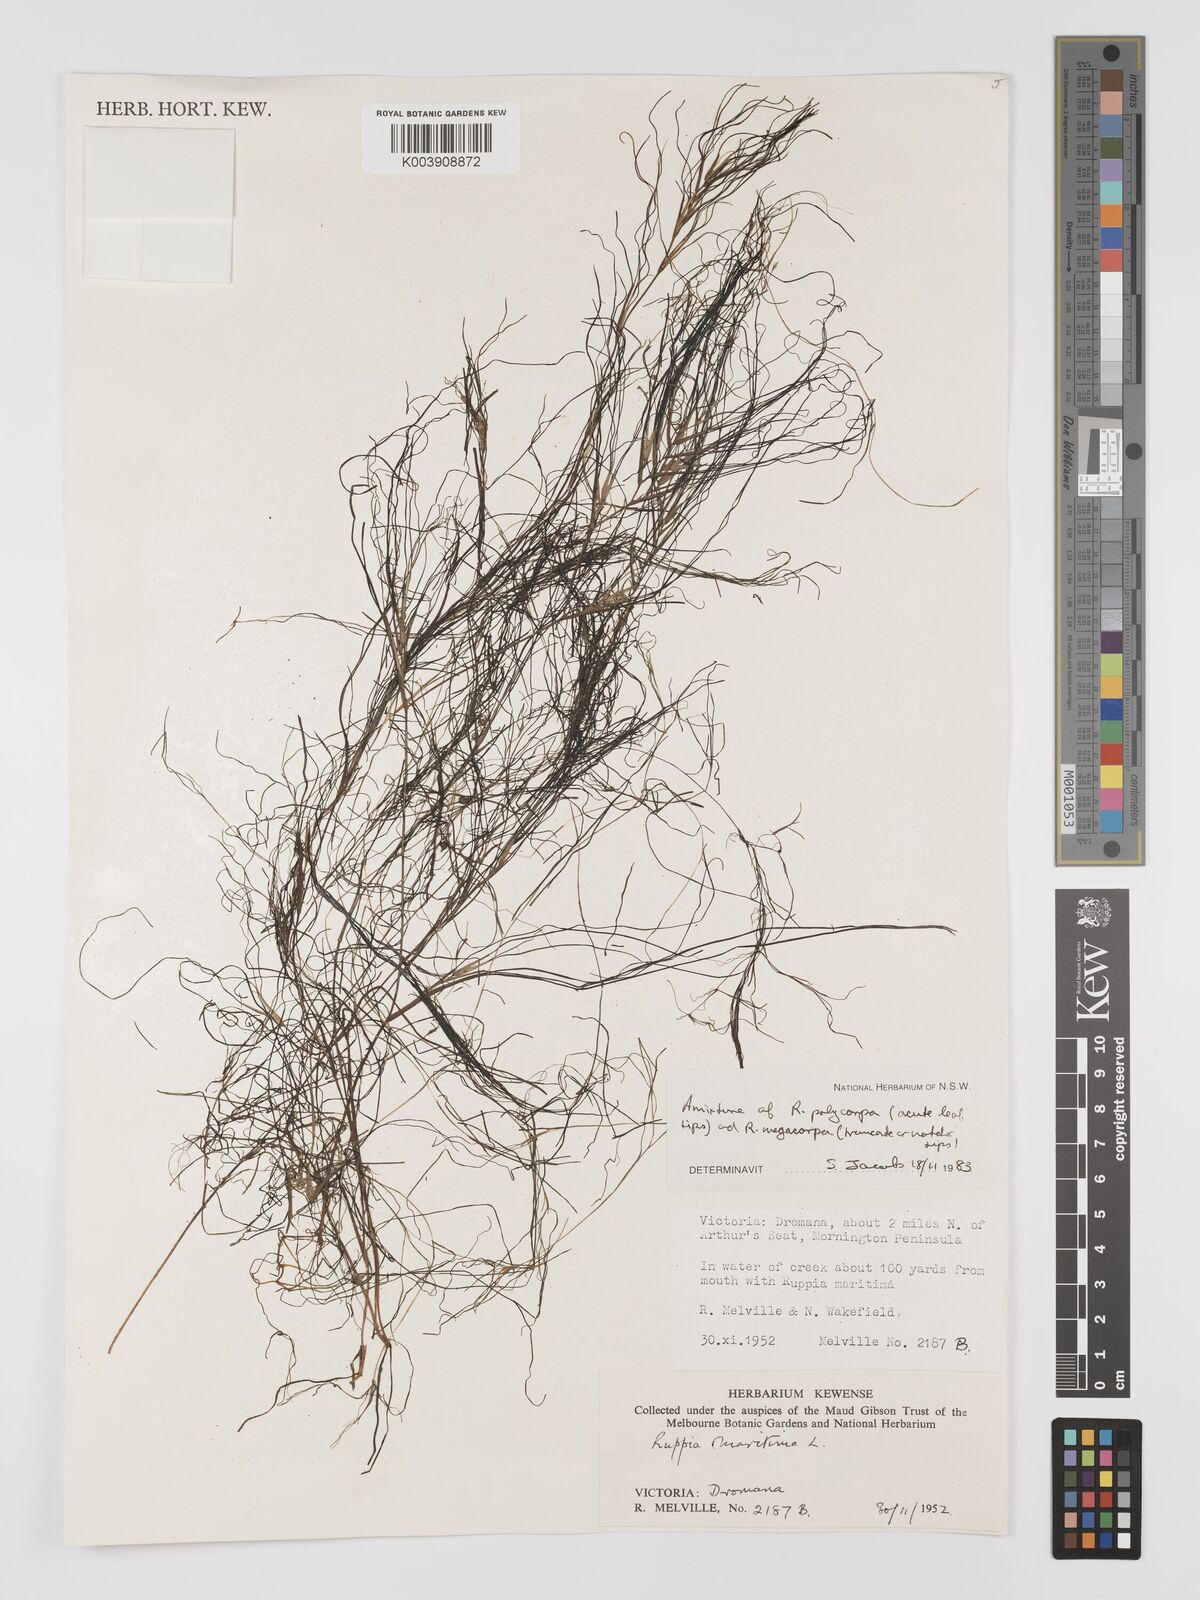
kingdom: Plantae
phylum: Tracheophyta
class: Liliopsida
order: Alismatales
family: Ruppiaceae
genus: Ruppia
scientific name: Ruppia polycarpa
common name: Species code: rp
